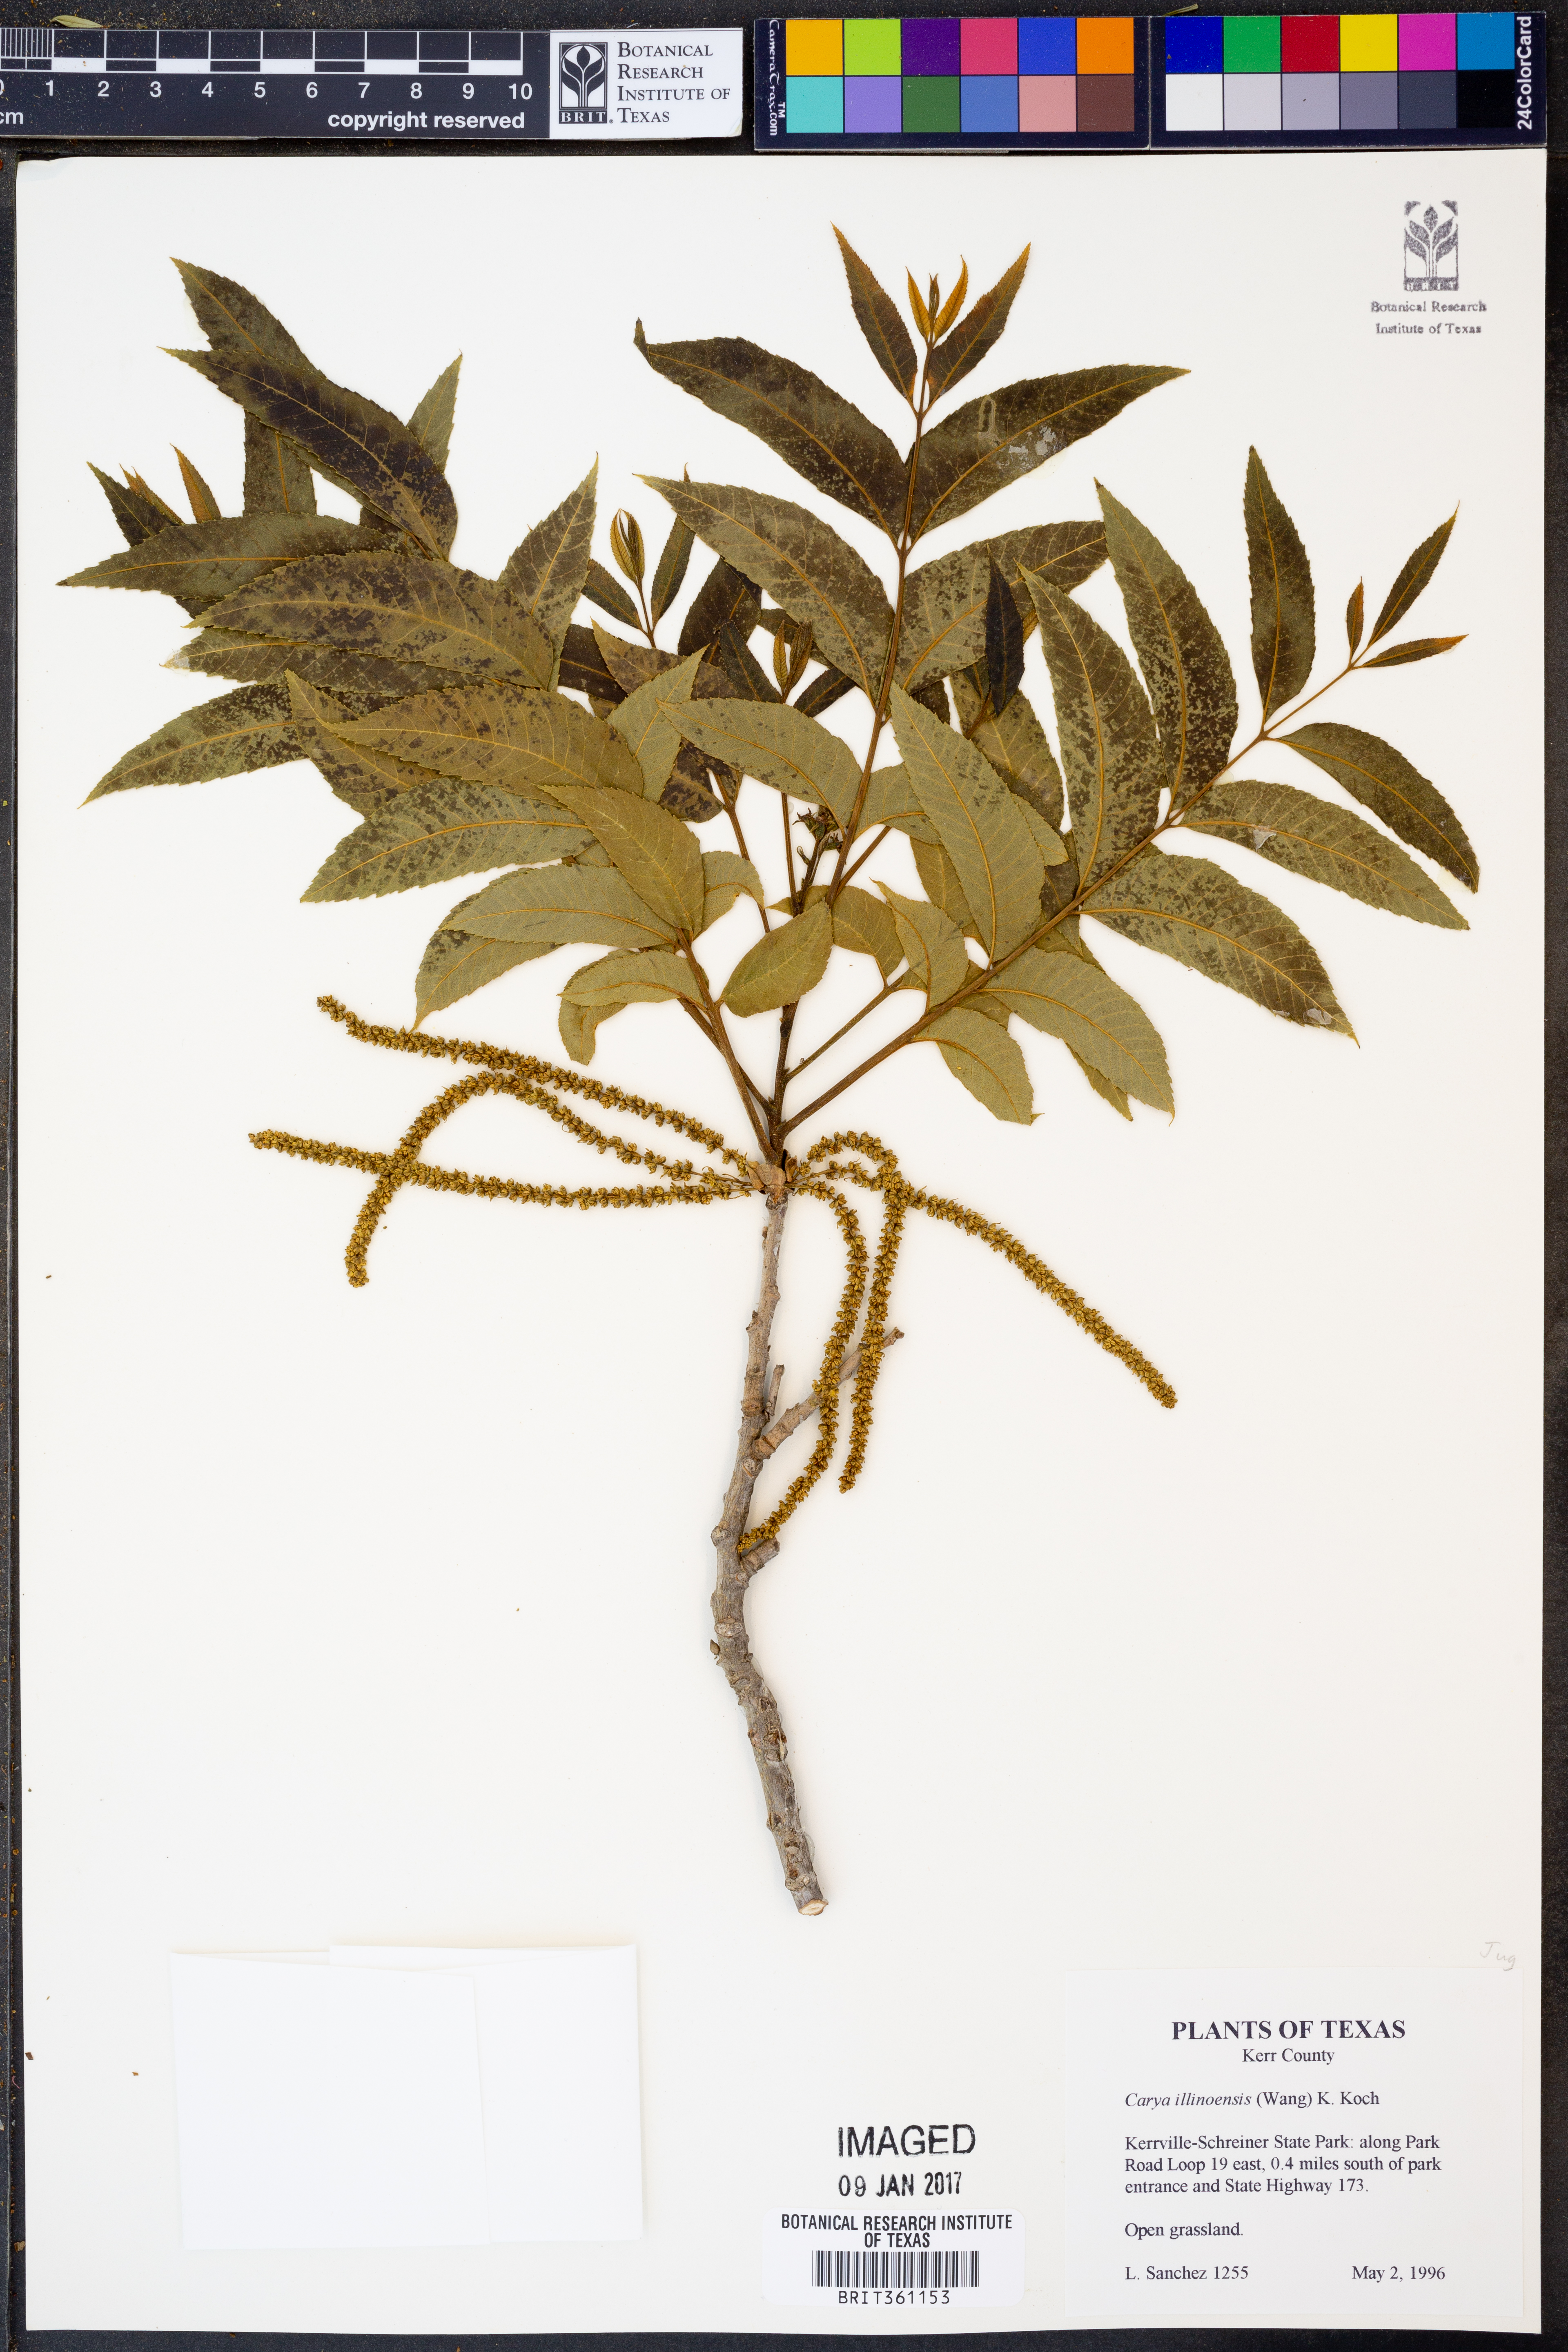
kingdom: Plantae
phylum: Tracheophyta
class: Magnoliopsida
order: Fagales
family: Juglandaceae
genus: Carya
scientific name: Carya illinoinensis
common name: Pecan
